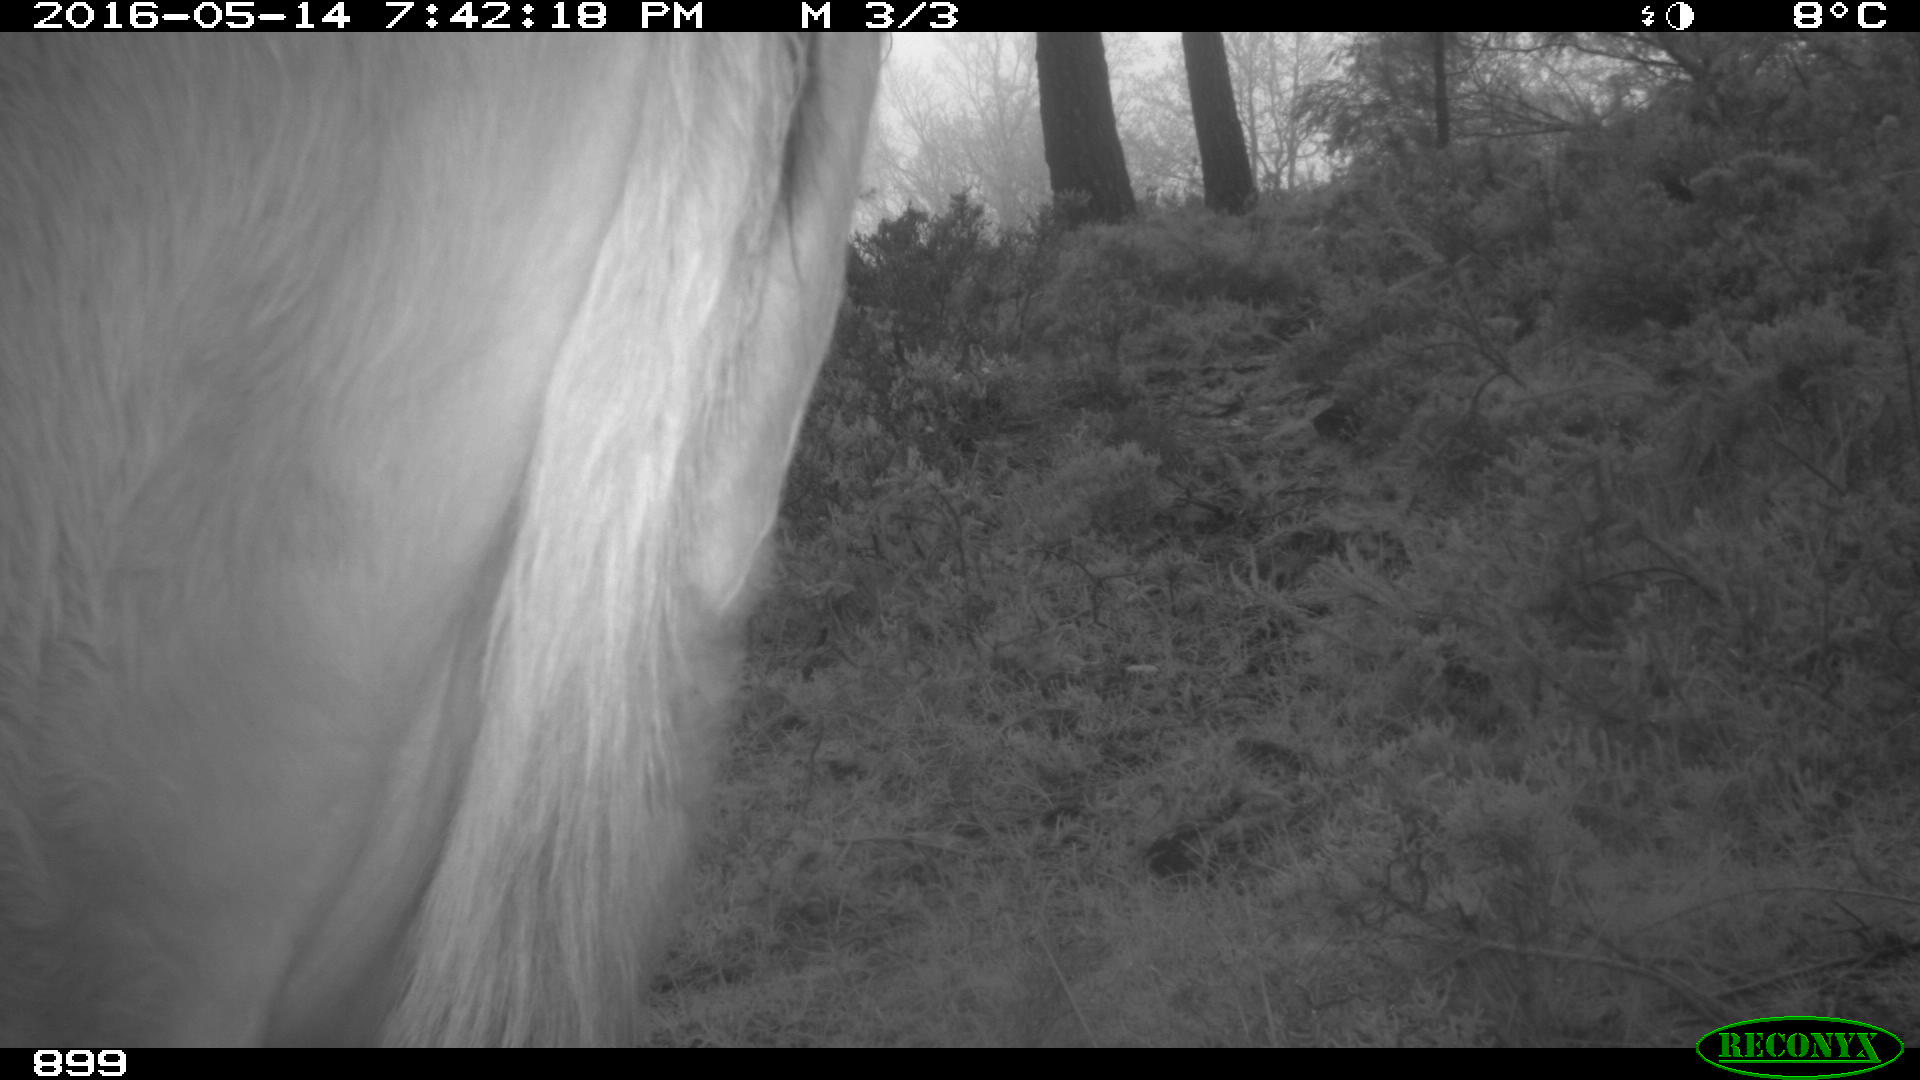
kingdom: Animalia
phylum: Chordata
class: Mammalia
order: Artiodactyla
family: Bovidae
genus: Bos
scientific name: Bos taurus
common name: Domesticated cattle
